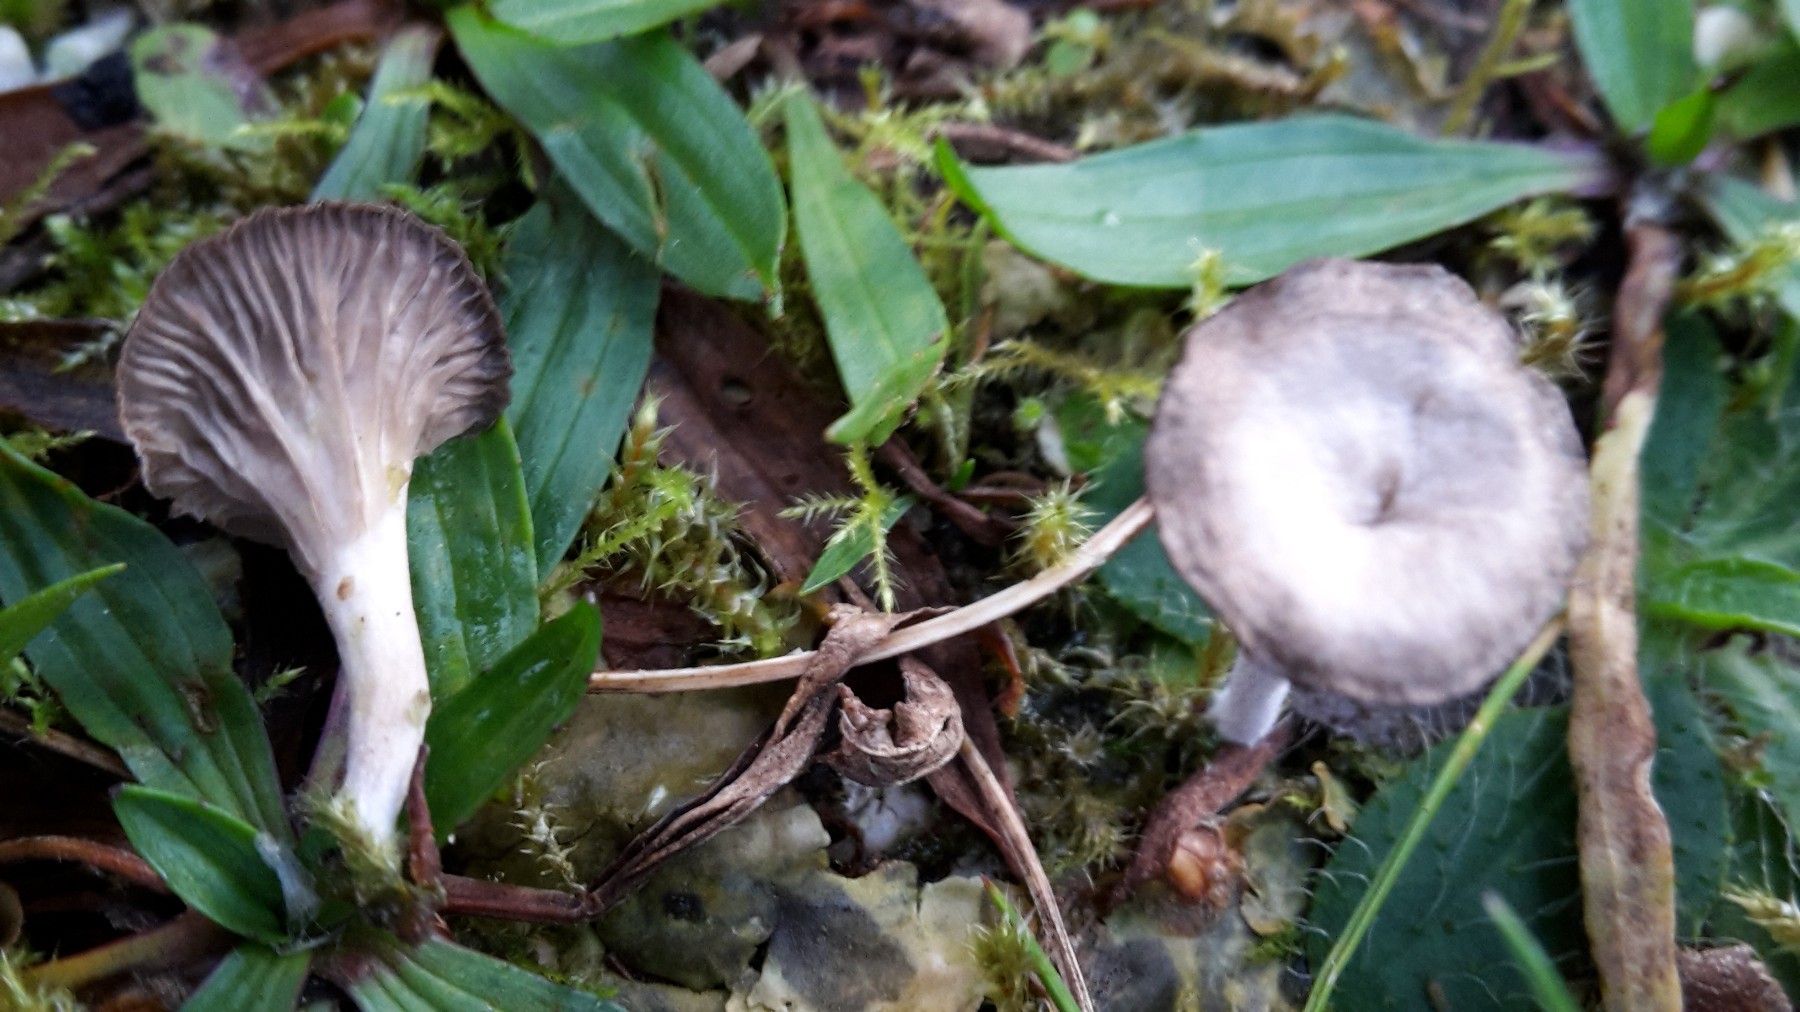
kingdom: Fungi
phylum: Basidiomycota
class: Agaricomycetes
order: Agaricales
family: Hygrophoraceae
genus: Arrhenia
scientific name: Arrhenia peltigerina
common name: skjoldlav-fontænehat
